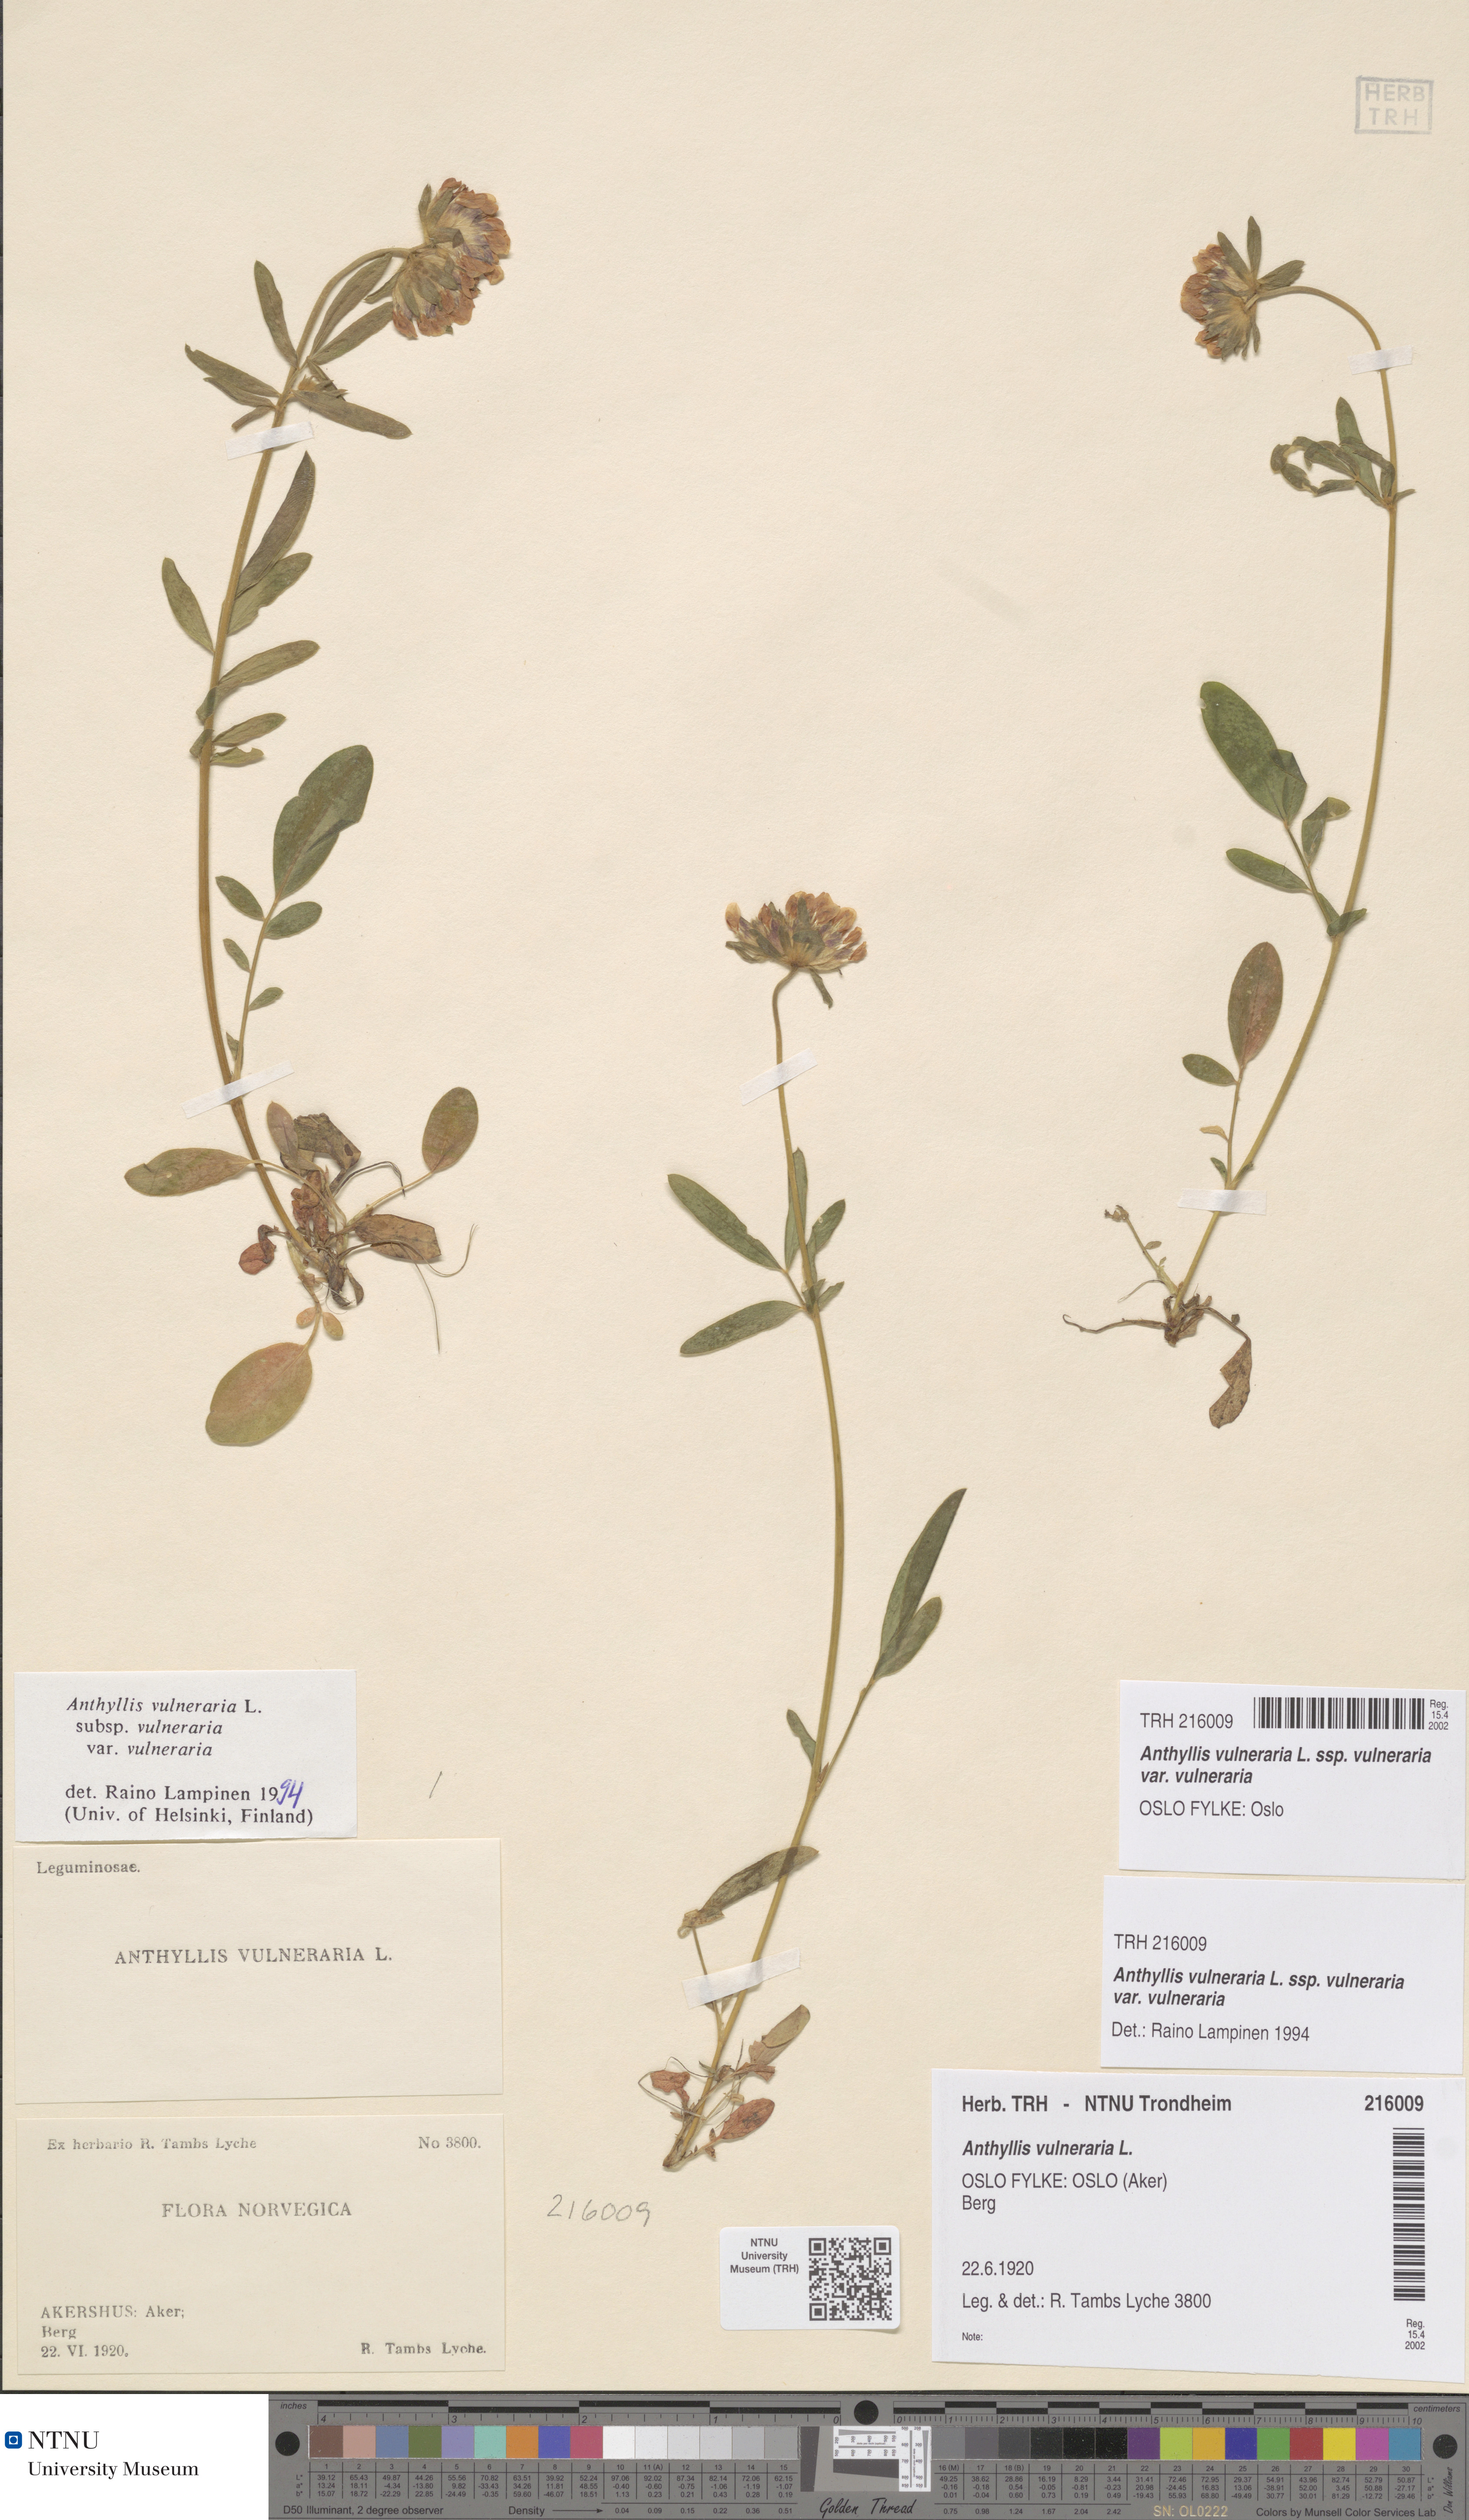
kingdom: Plantae
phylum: Tracheophyta
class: Magnoliopsida
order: Fabales
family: Fabaceae
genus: Anthyllis
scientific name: Anthyllis vulneraria
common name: Kidney vetch
